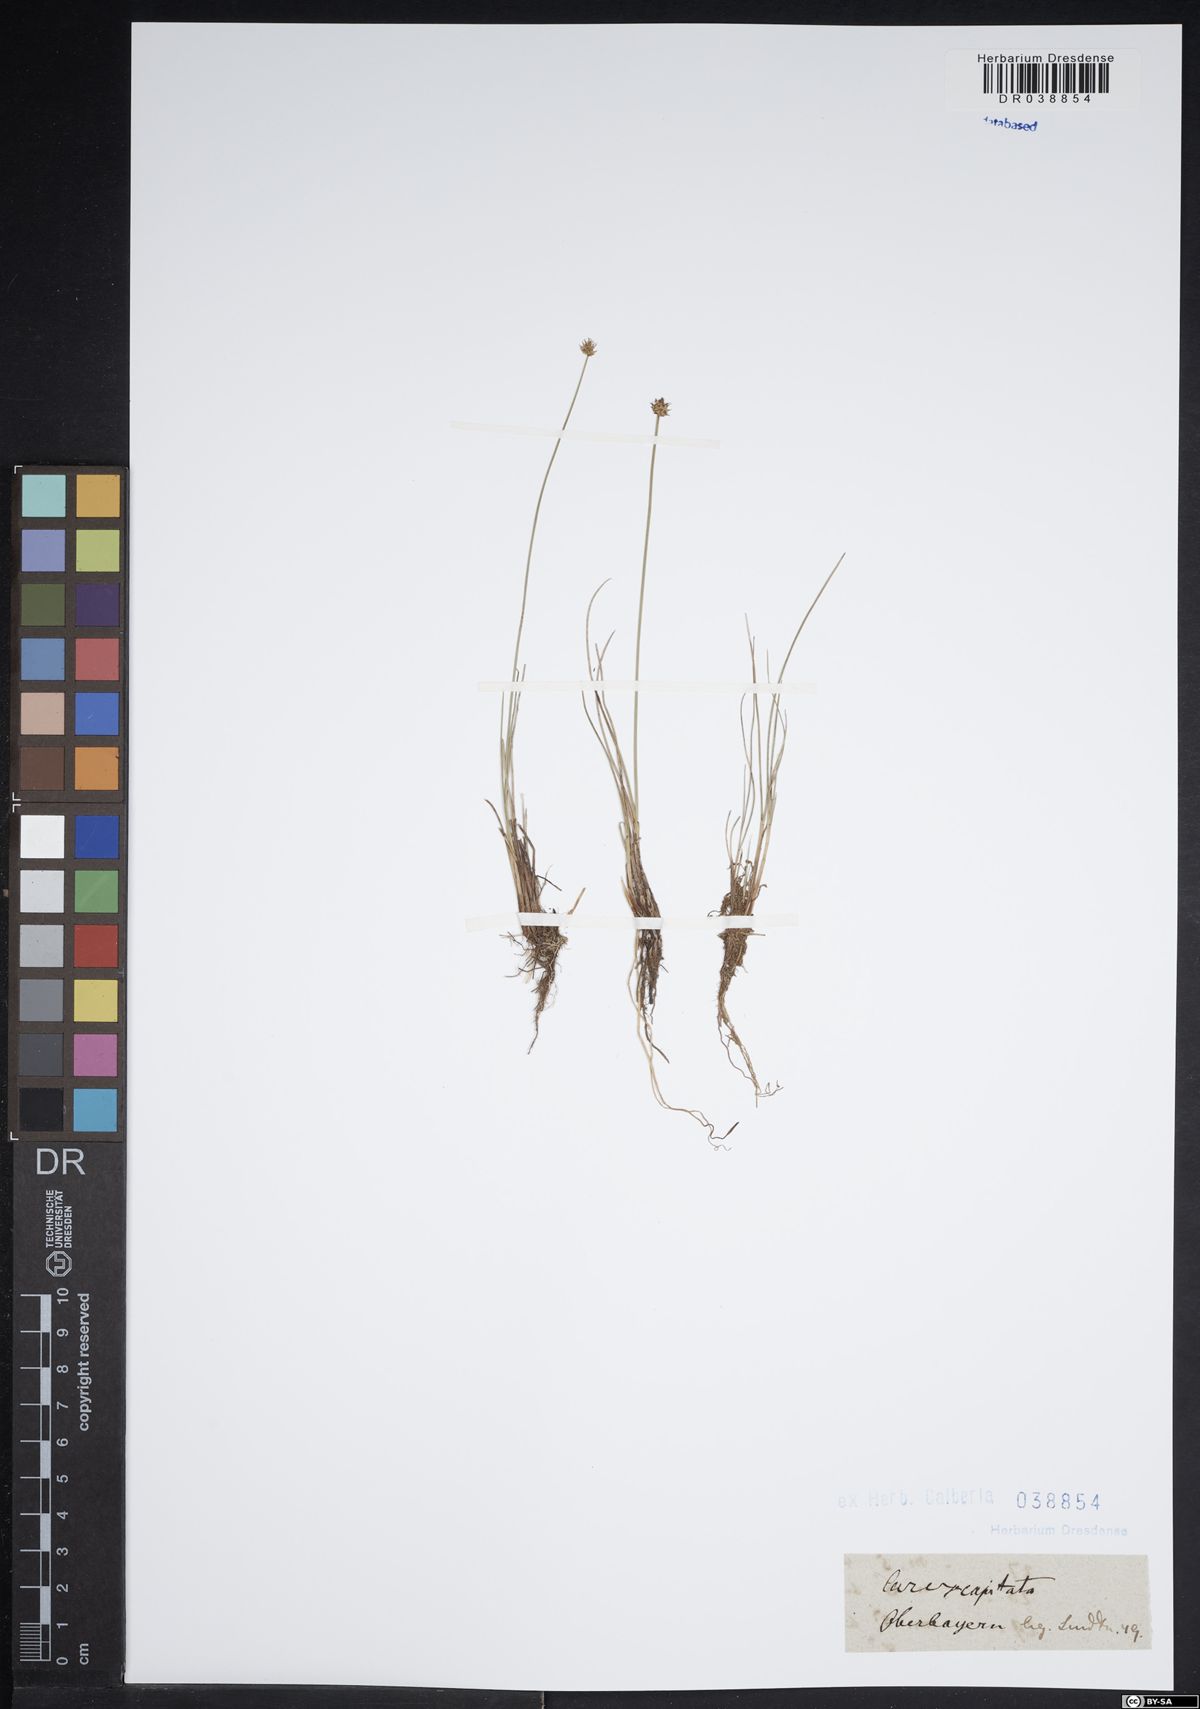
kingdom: Plantae
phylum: Tracheophyta
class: Liliopsida
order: Poales
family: Cyperaceae
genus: Carex
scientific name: Carex capitata
